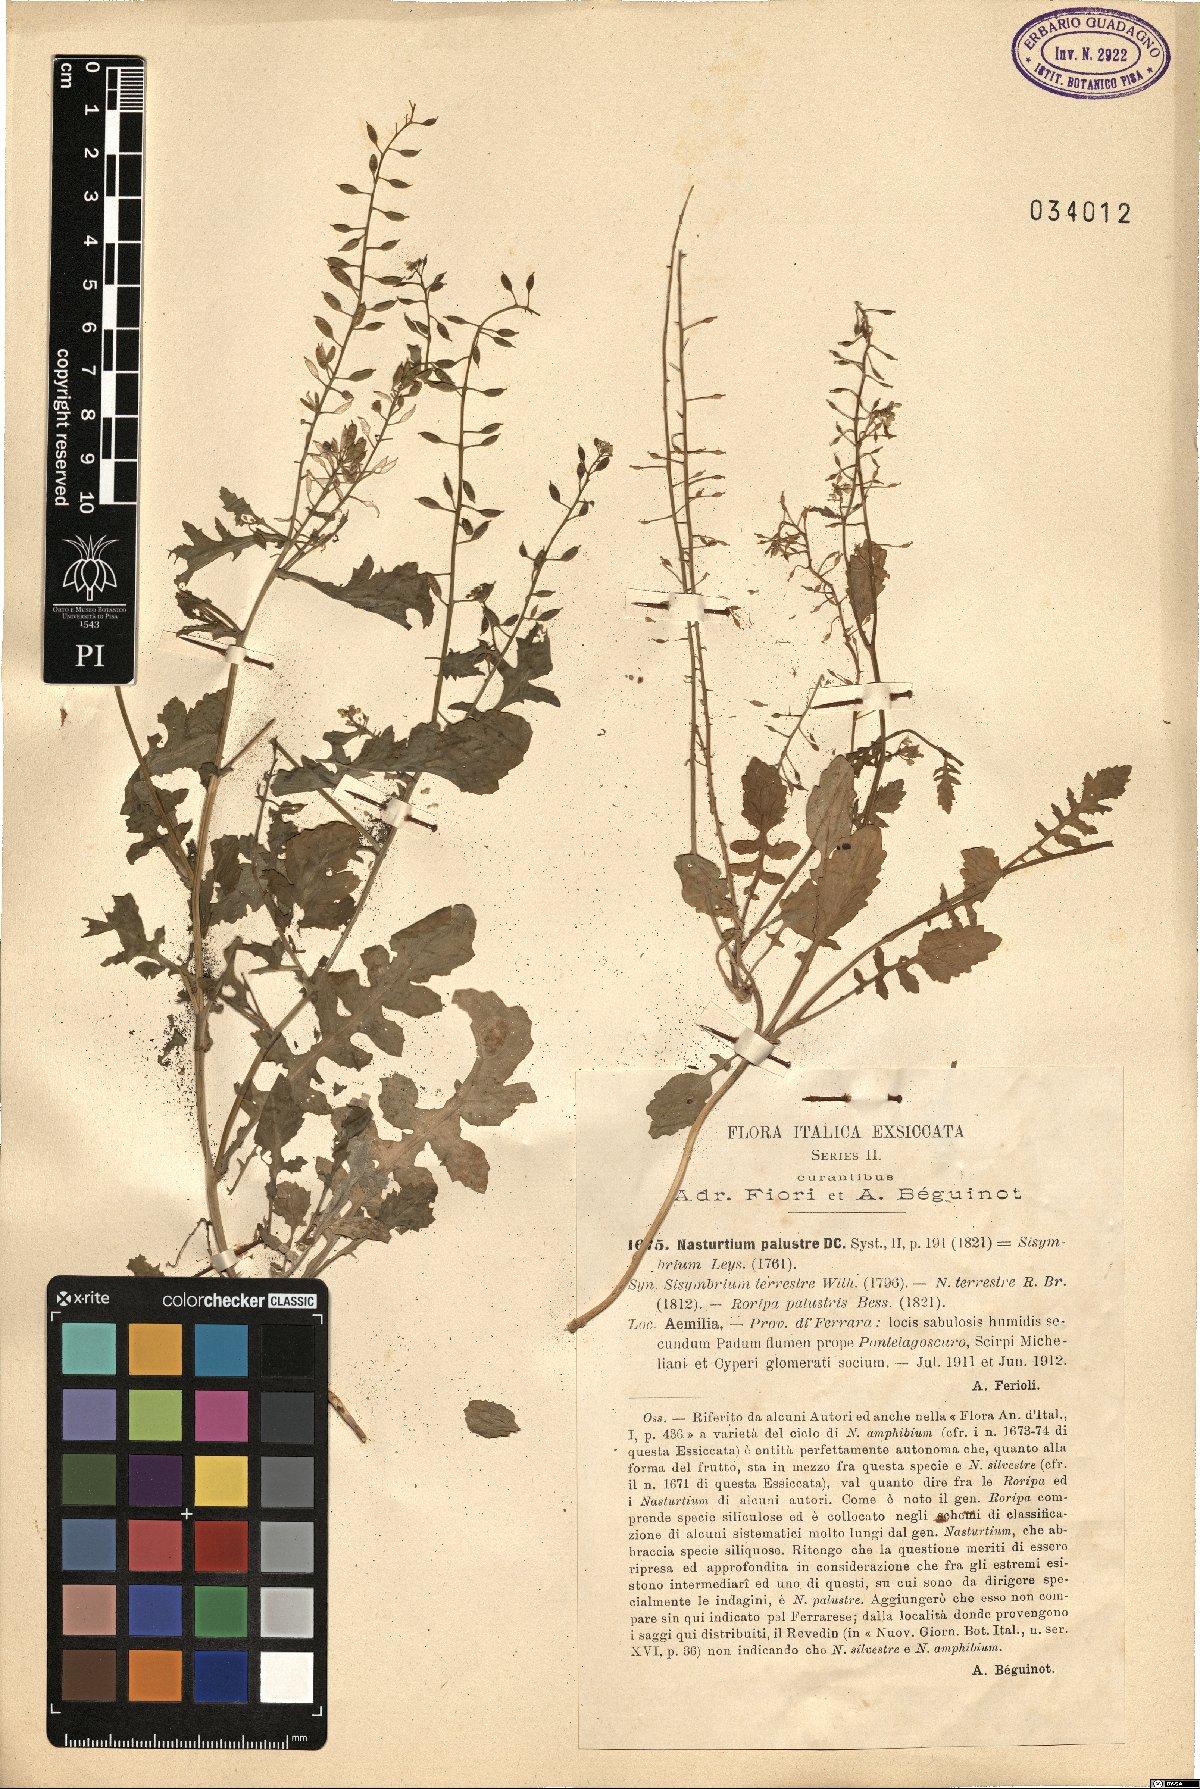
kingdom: Plantae
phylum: Tracheophyta
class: Magnoliopsida
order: Brassicales
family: Brassicaceae
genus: Rorippa
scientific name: Rorippa palustris
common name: Marsh yellow-cress
